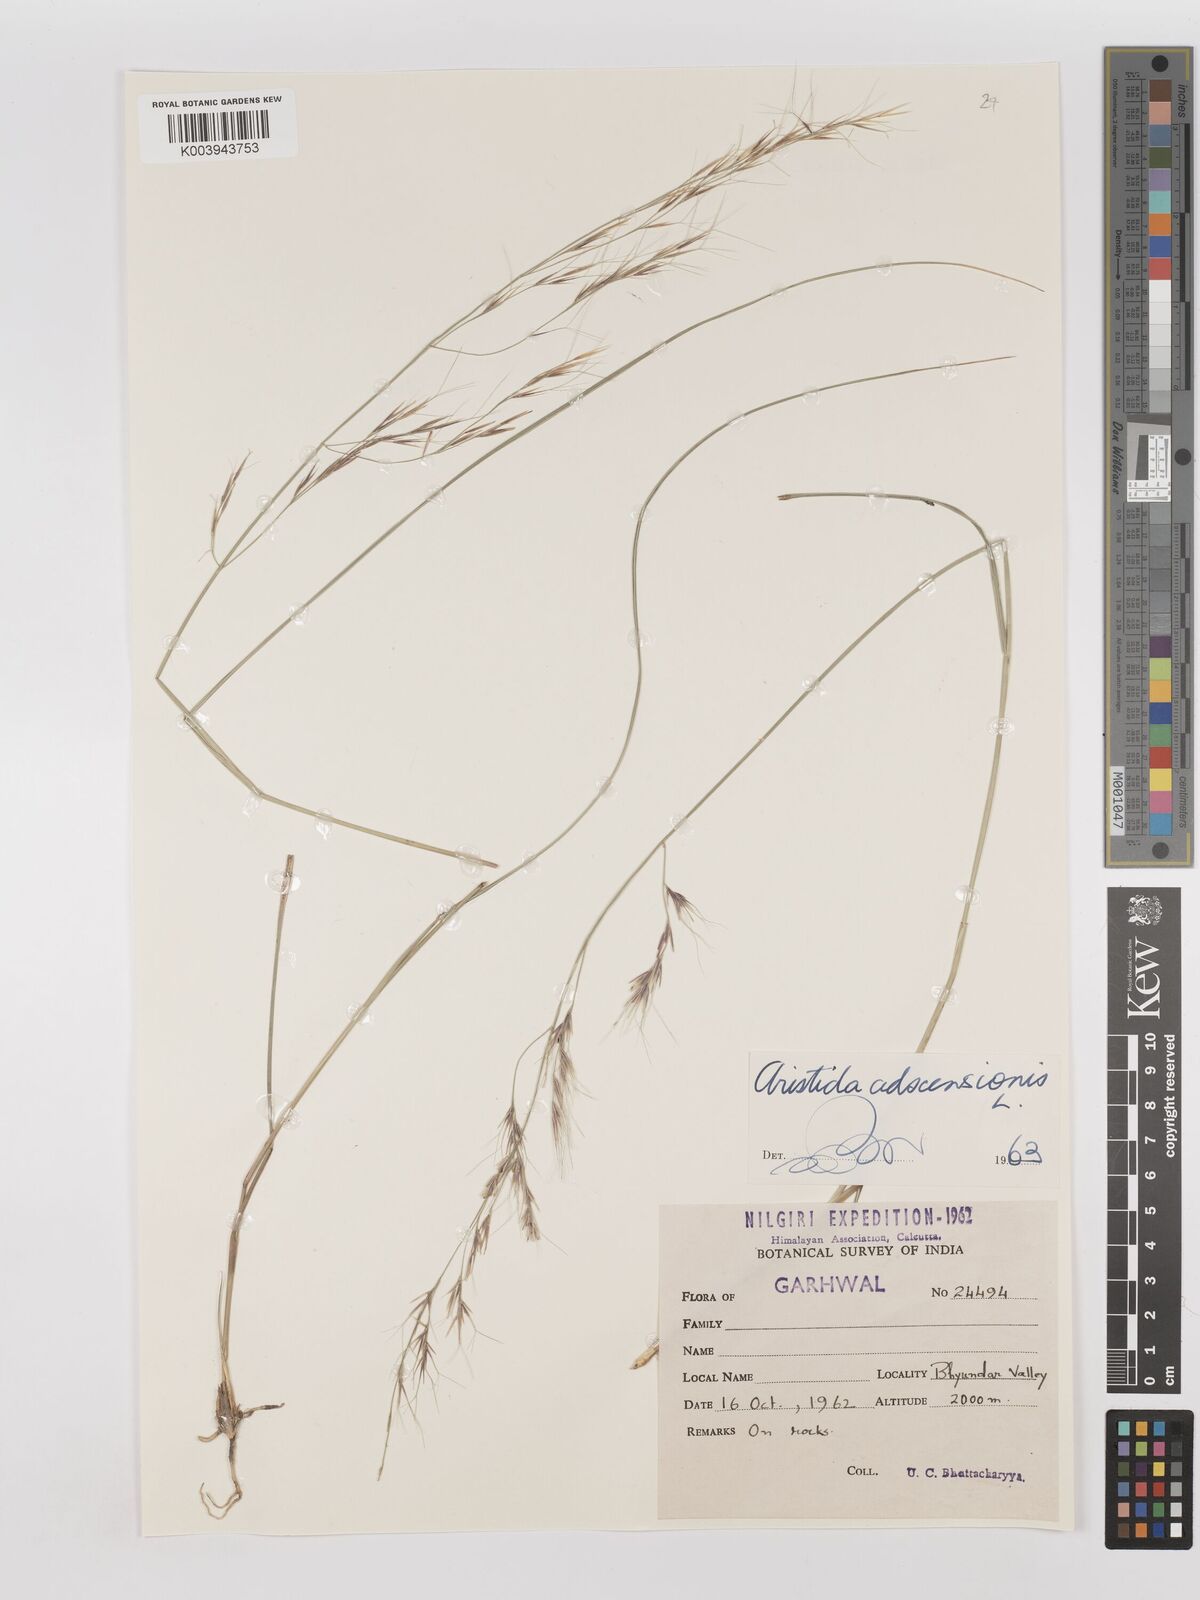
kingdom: Plantae
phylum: Tracheophyta
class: Liliopsida
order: Poales
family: Poaceae
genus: Aristida
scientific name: Aristida adscensionis
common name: Sixweeks threeawn
